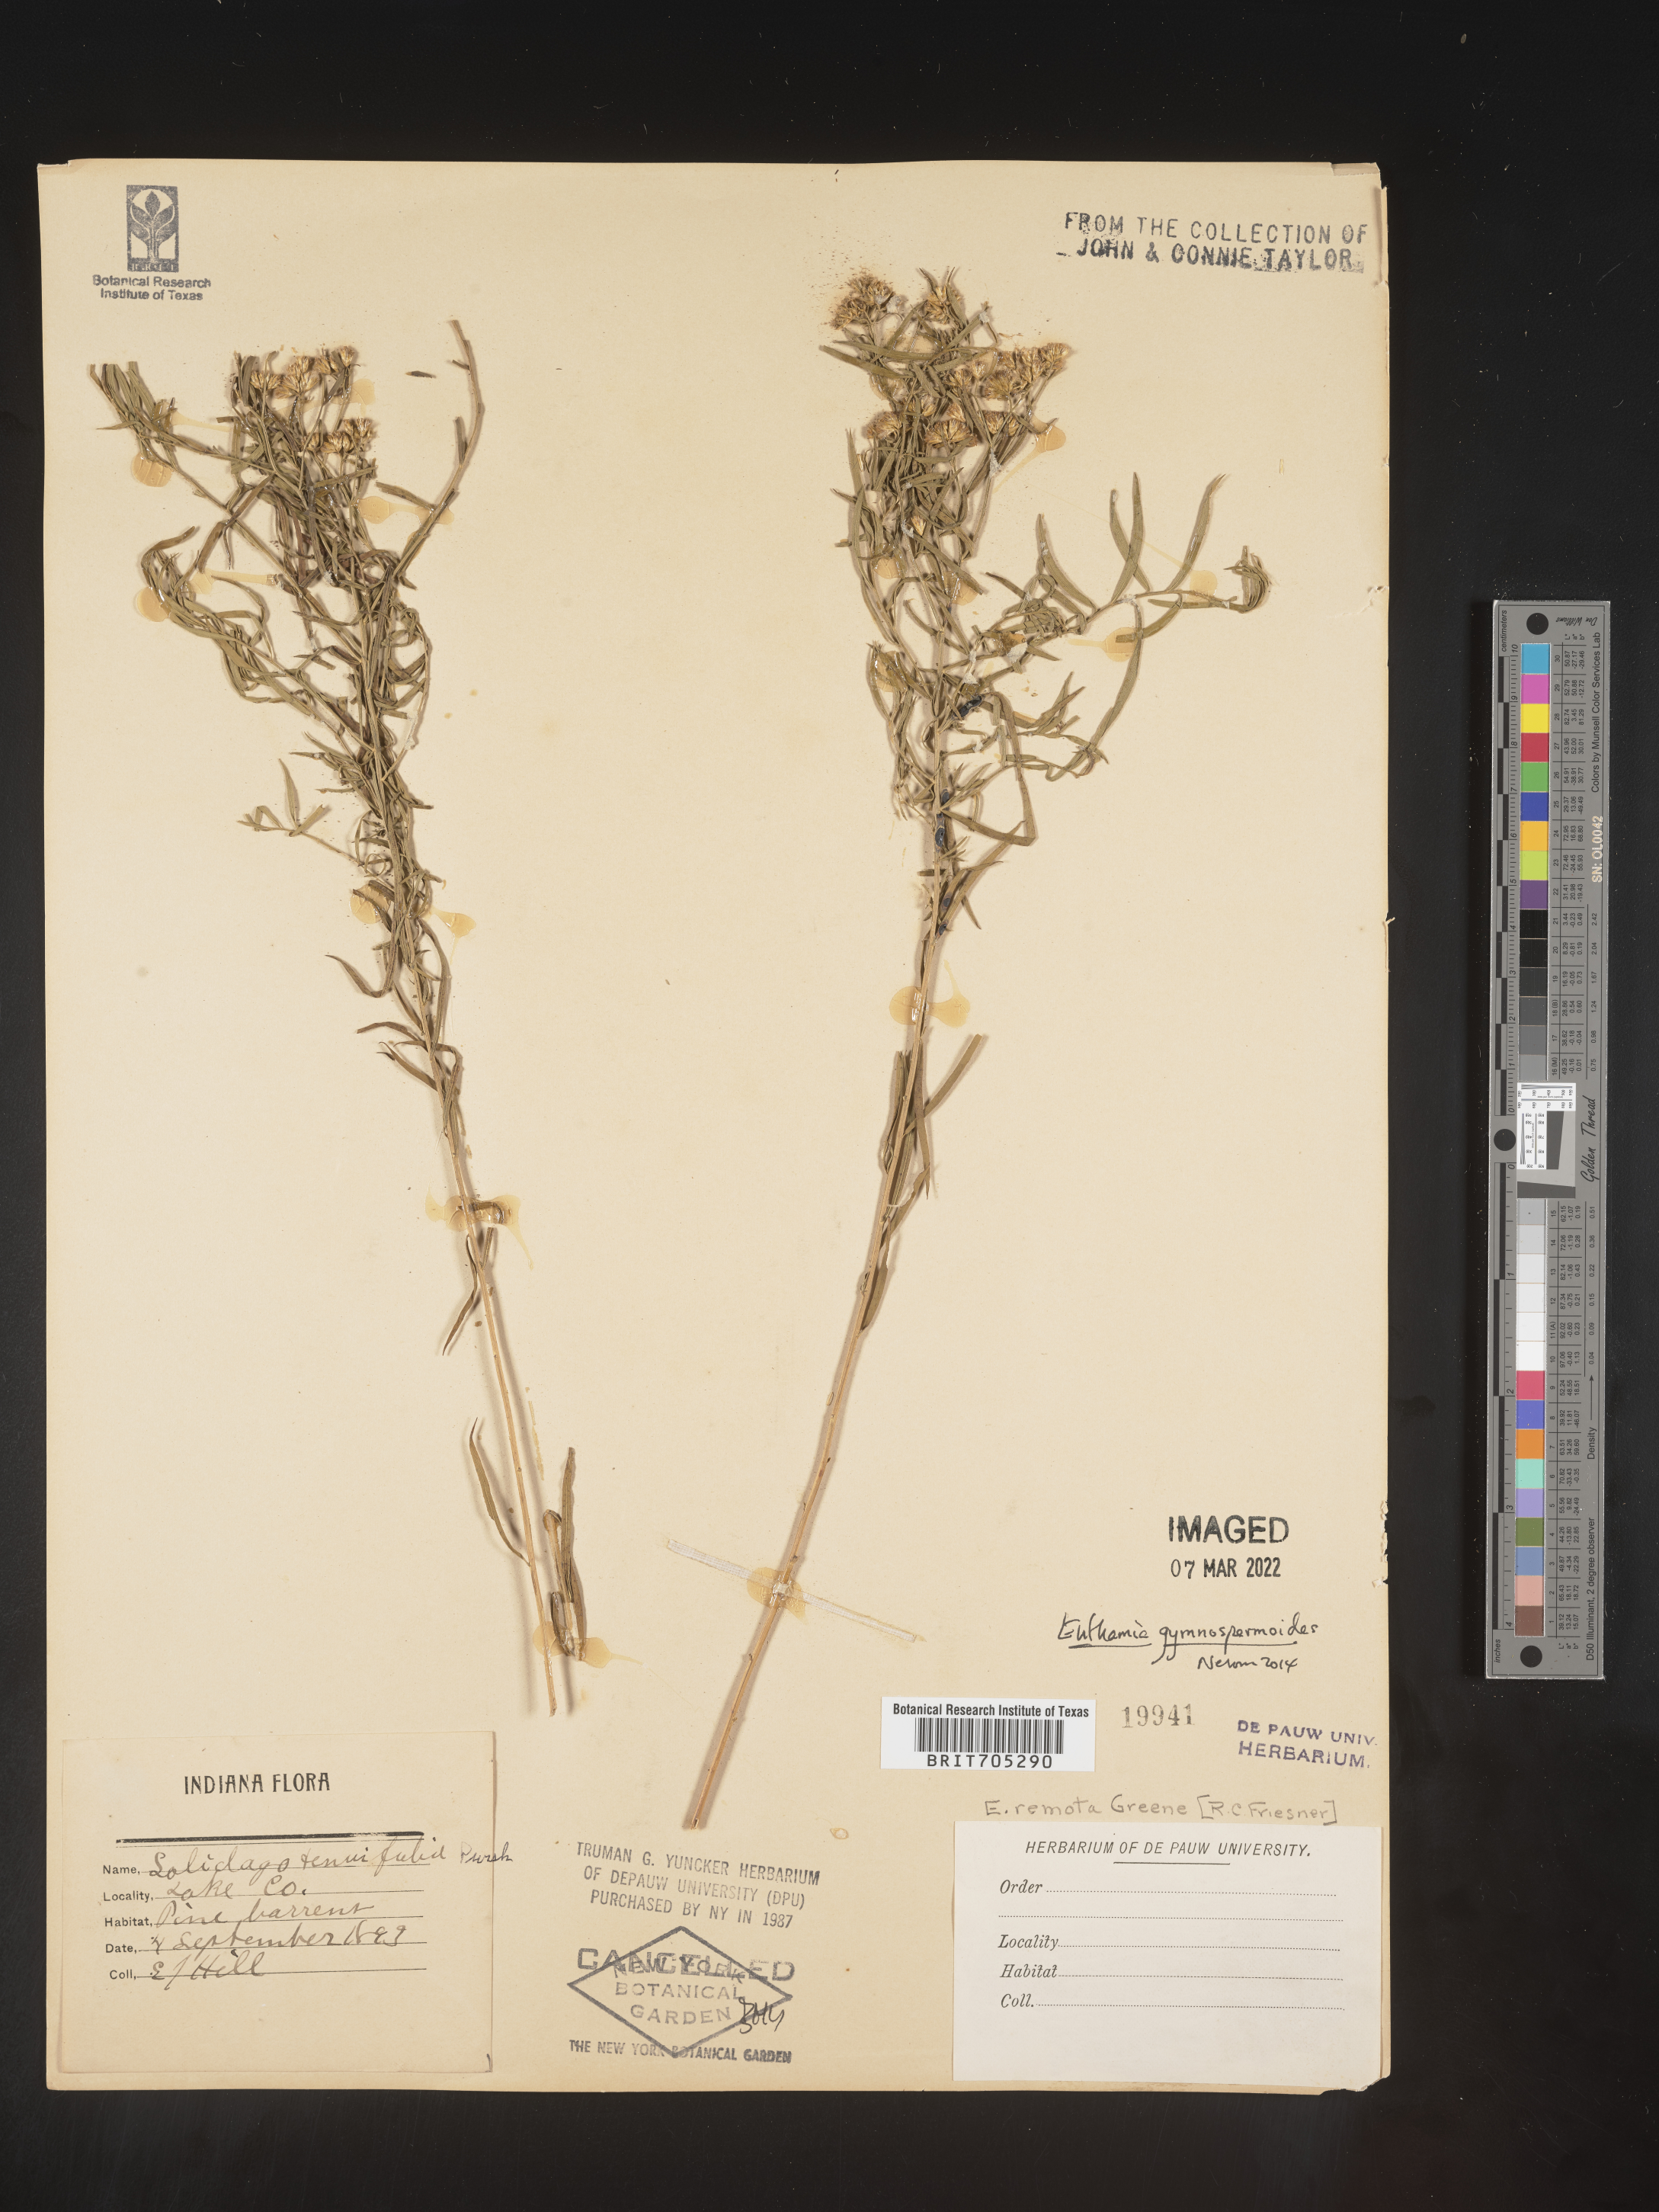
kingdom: Plantae
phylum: Tracheophyta
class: Magnoliopsida
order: Asterales
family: Asteraceae
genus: Euthamia
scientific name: Euthamia gymnospermoides
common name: Great plains goldentop
